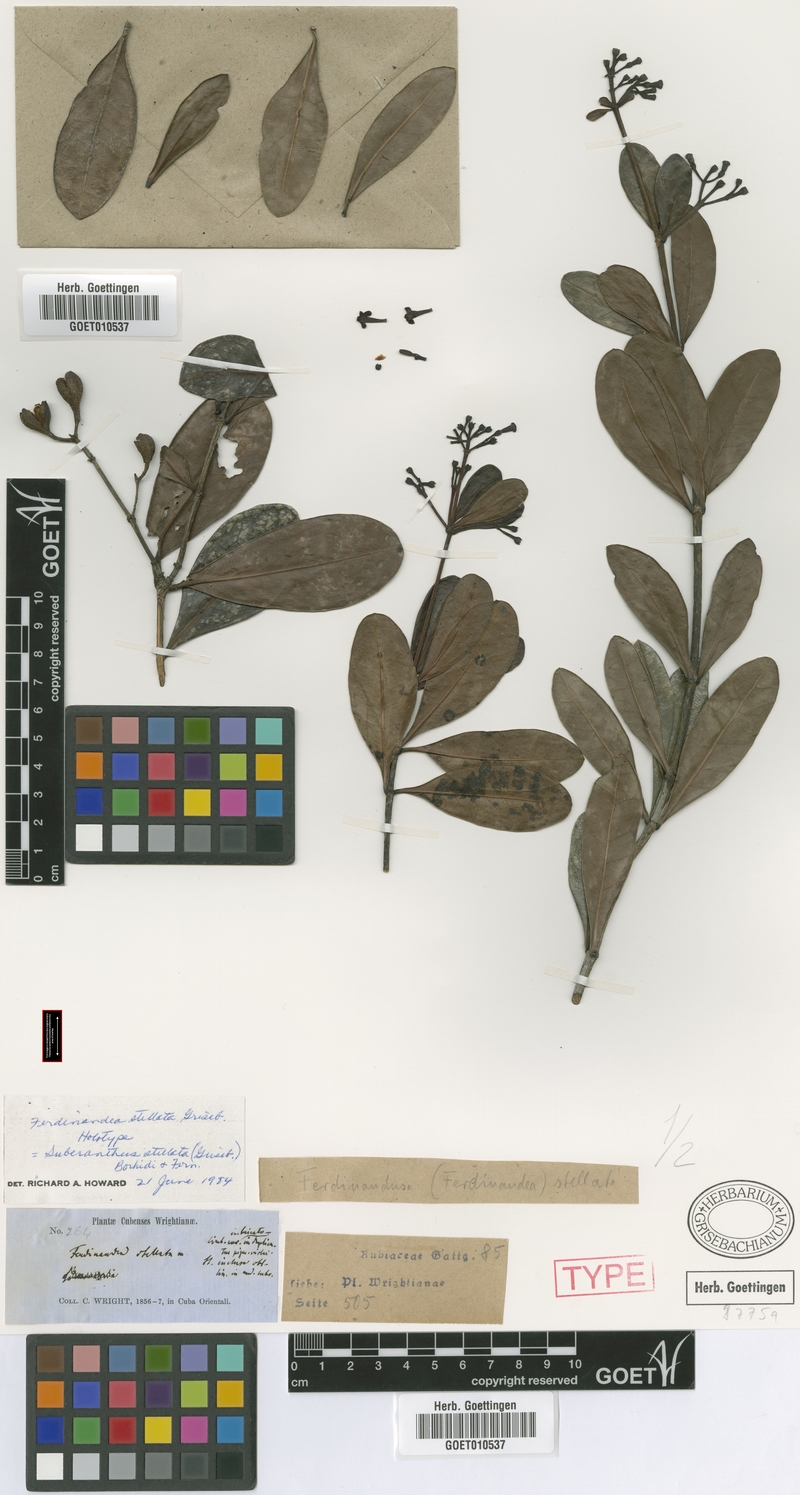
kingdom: Plantae
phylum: Tracheophyta
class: Magnoliopsida
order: Gentianales
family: Rubiaceae
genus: Suberanthus
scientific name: Suberanthus stellatus
